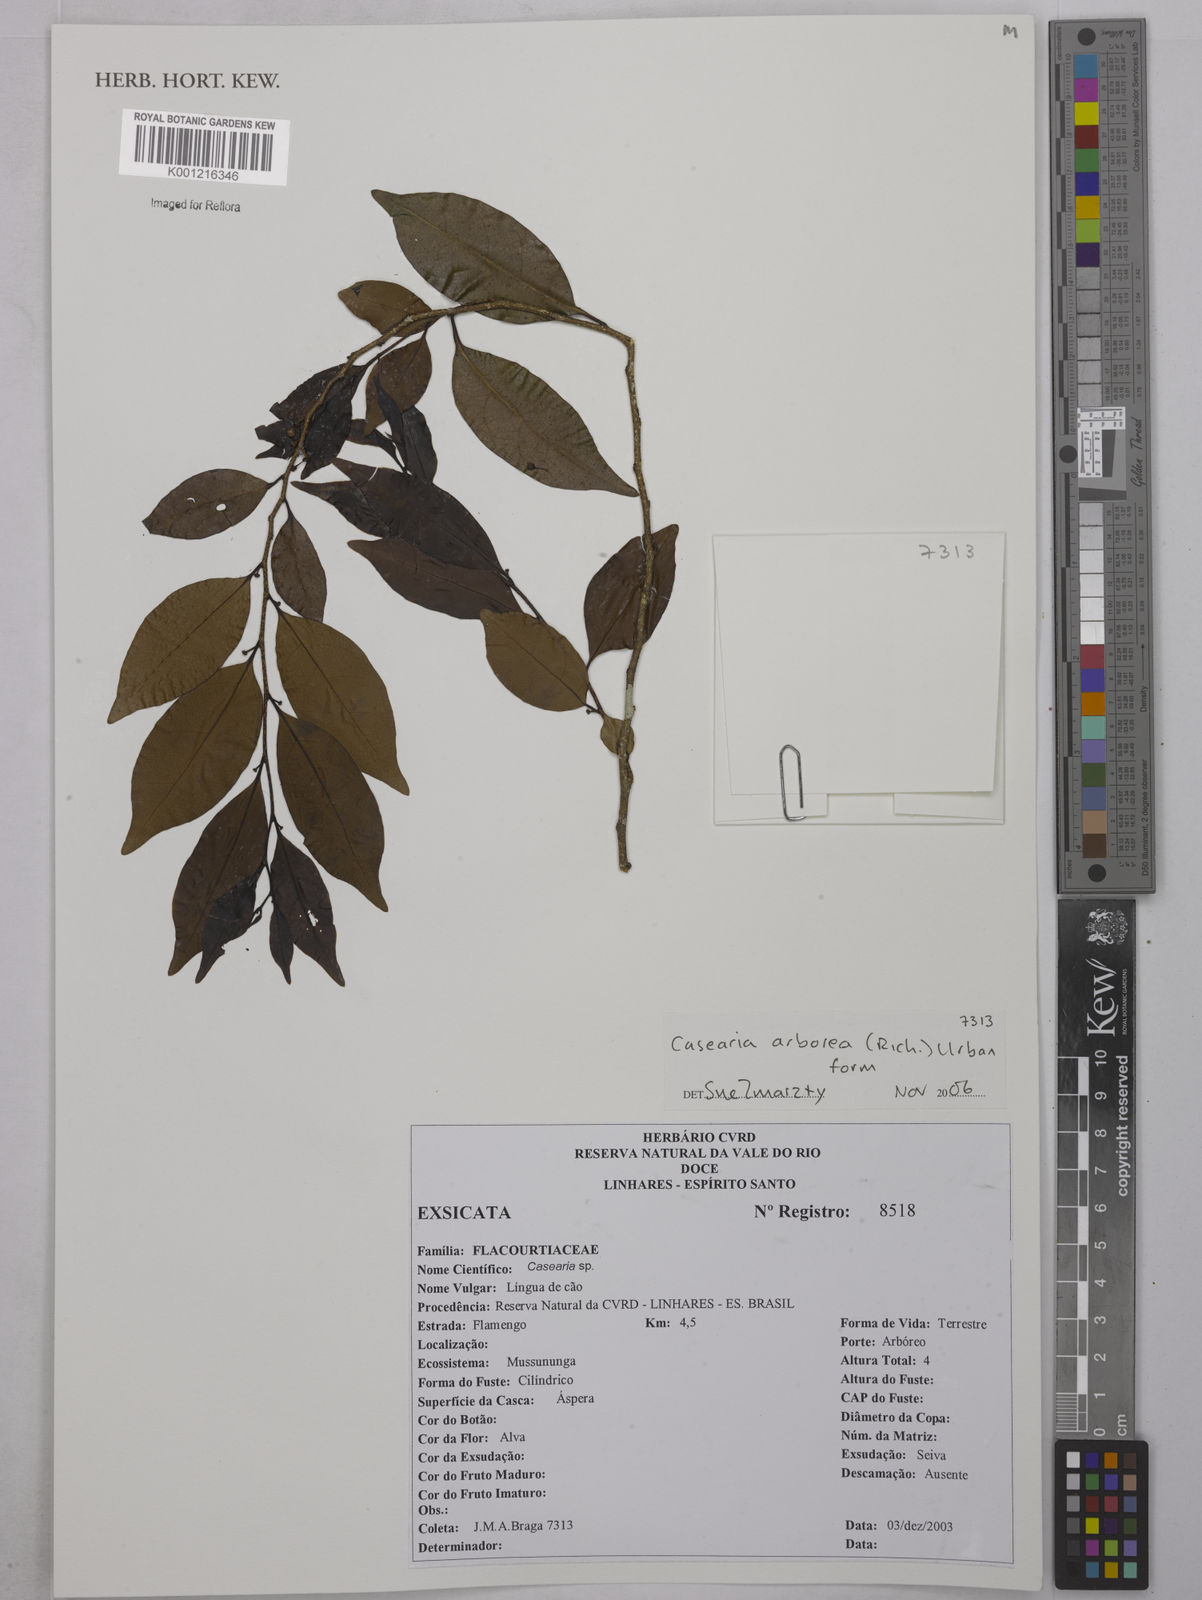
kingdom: Plantae
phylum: Tracheophyta
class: Magnoliopsida
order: Malpighiales
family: Salicaceae
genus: Casearia
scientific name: Casearia arborea
